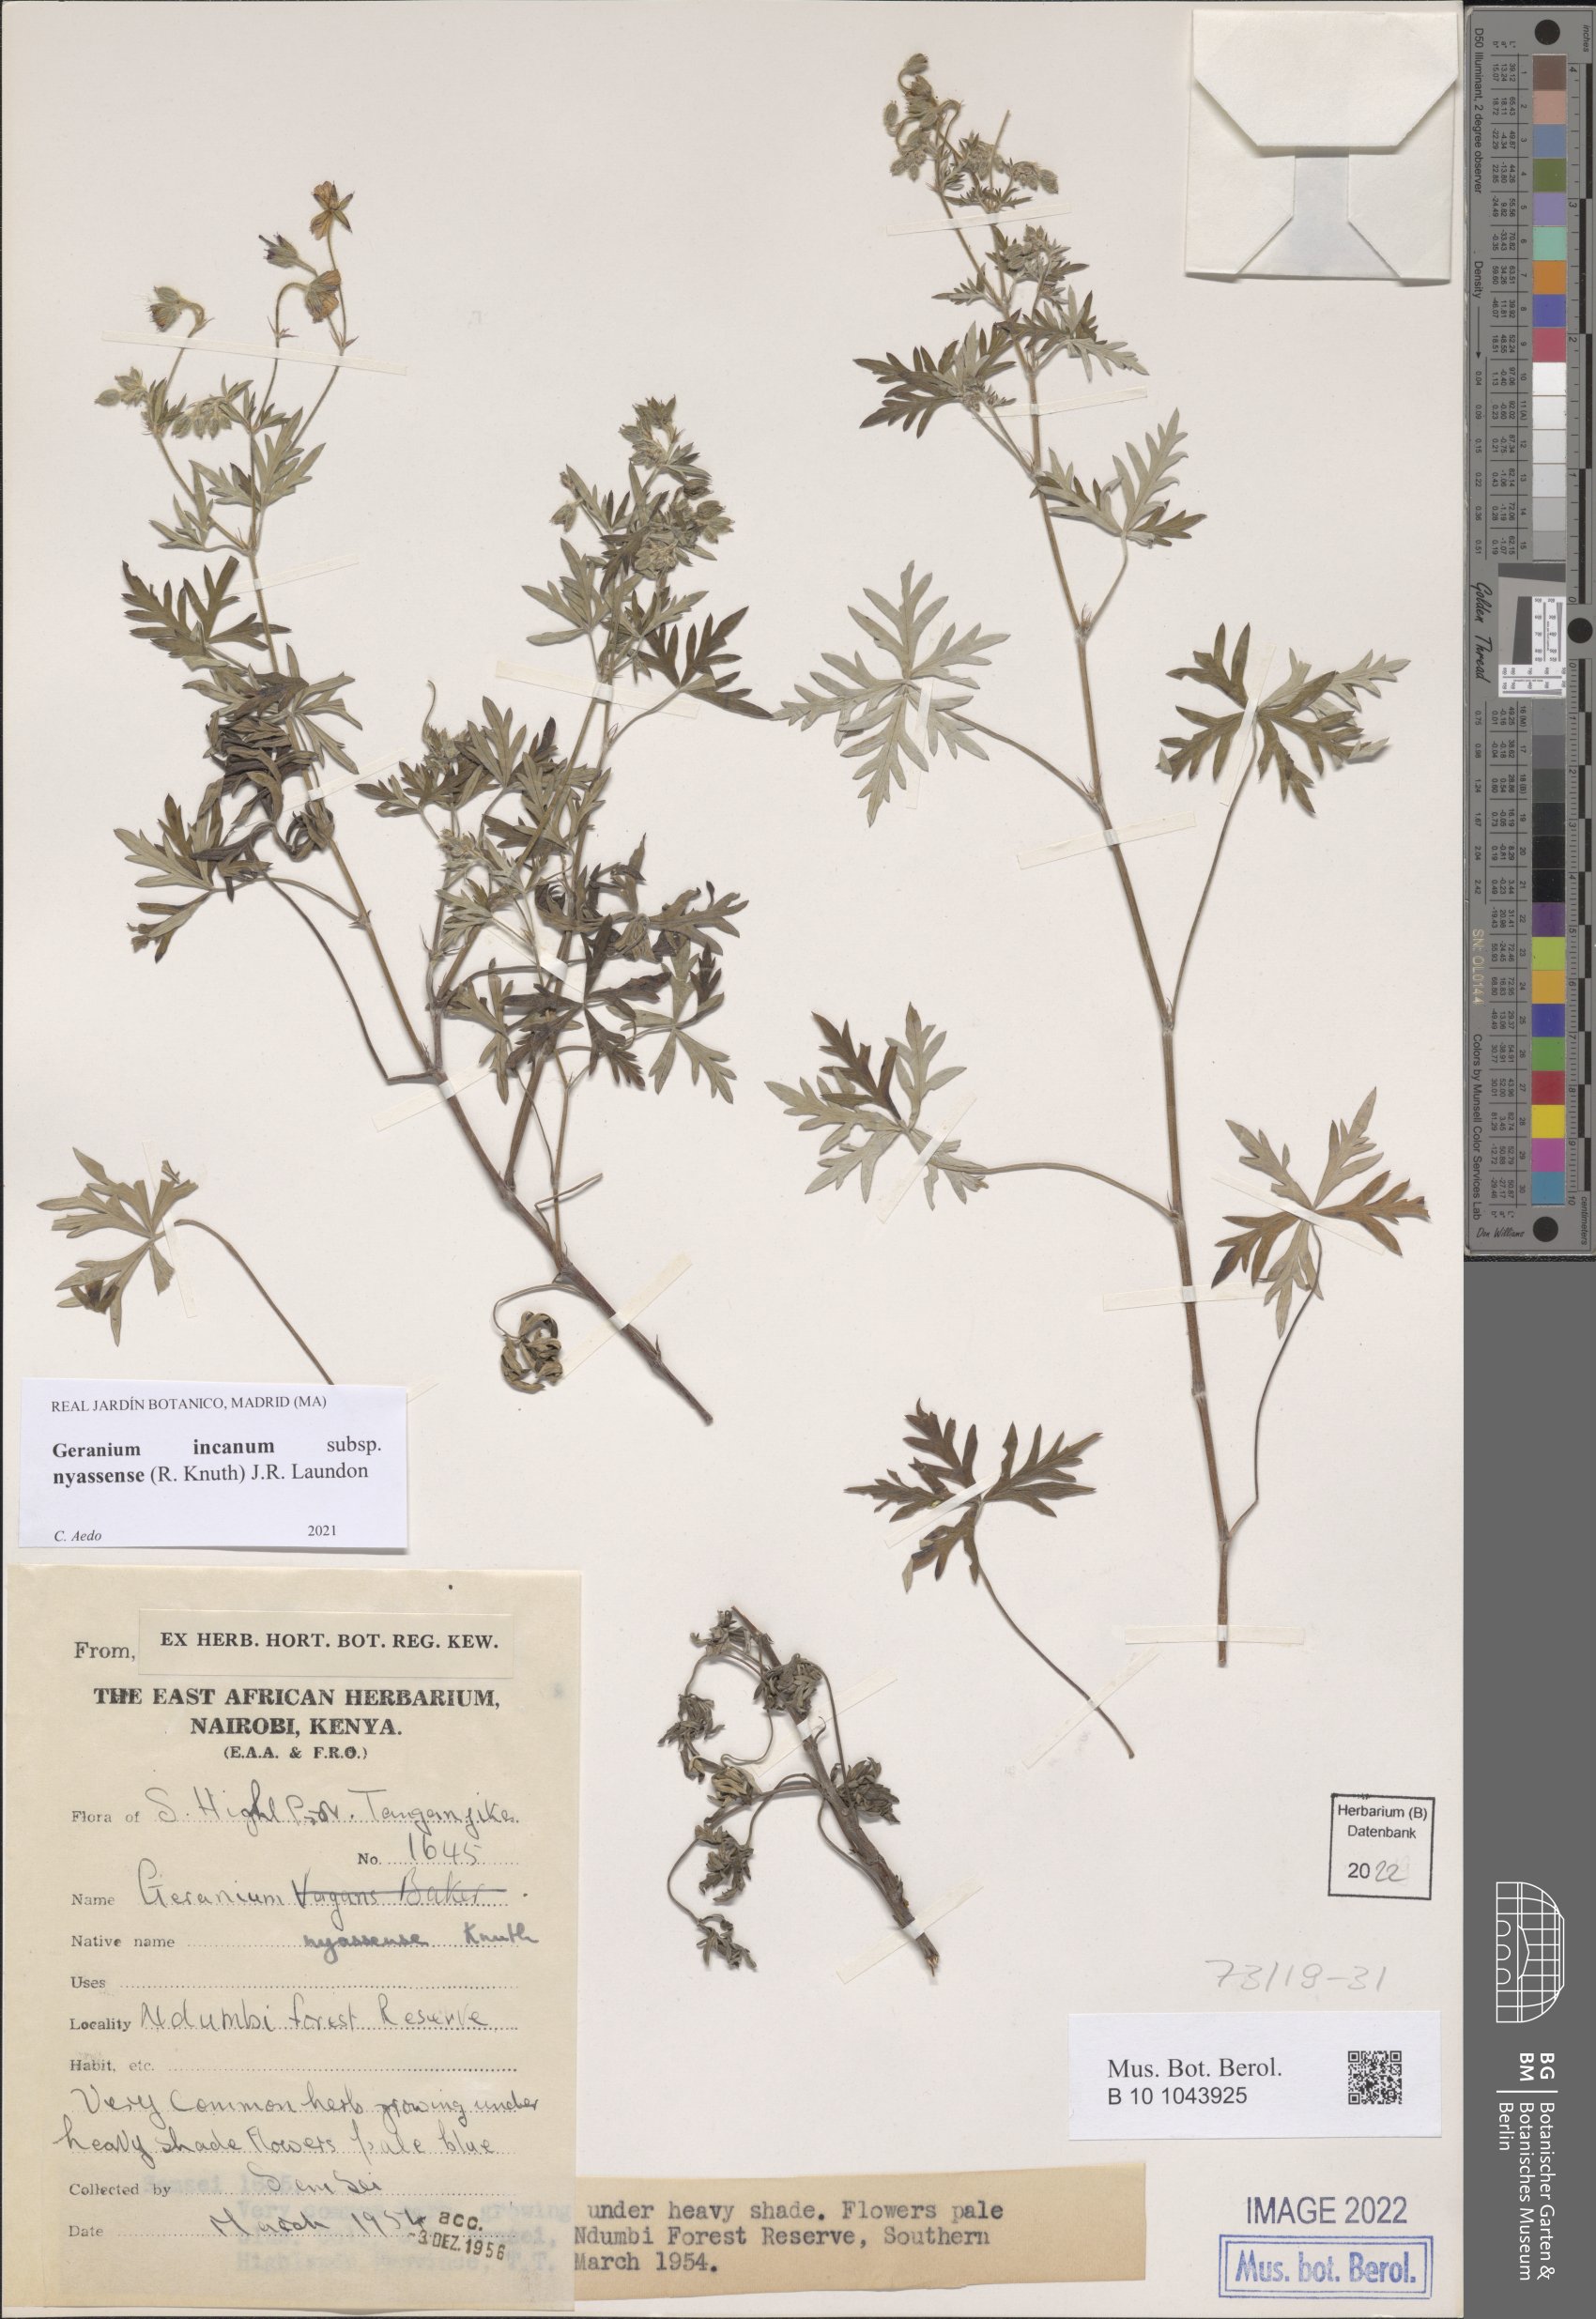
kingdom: Plantae
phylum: Tracheophyta
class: Magnoliopsida
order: Geraniales
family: Geraniaceae
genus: Geranium
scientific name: Geranium nyassense
